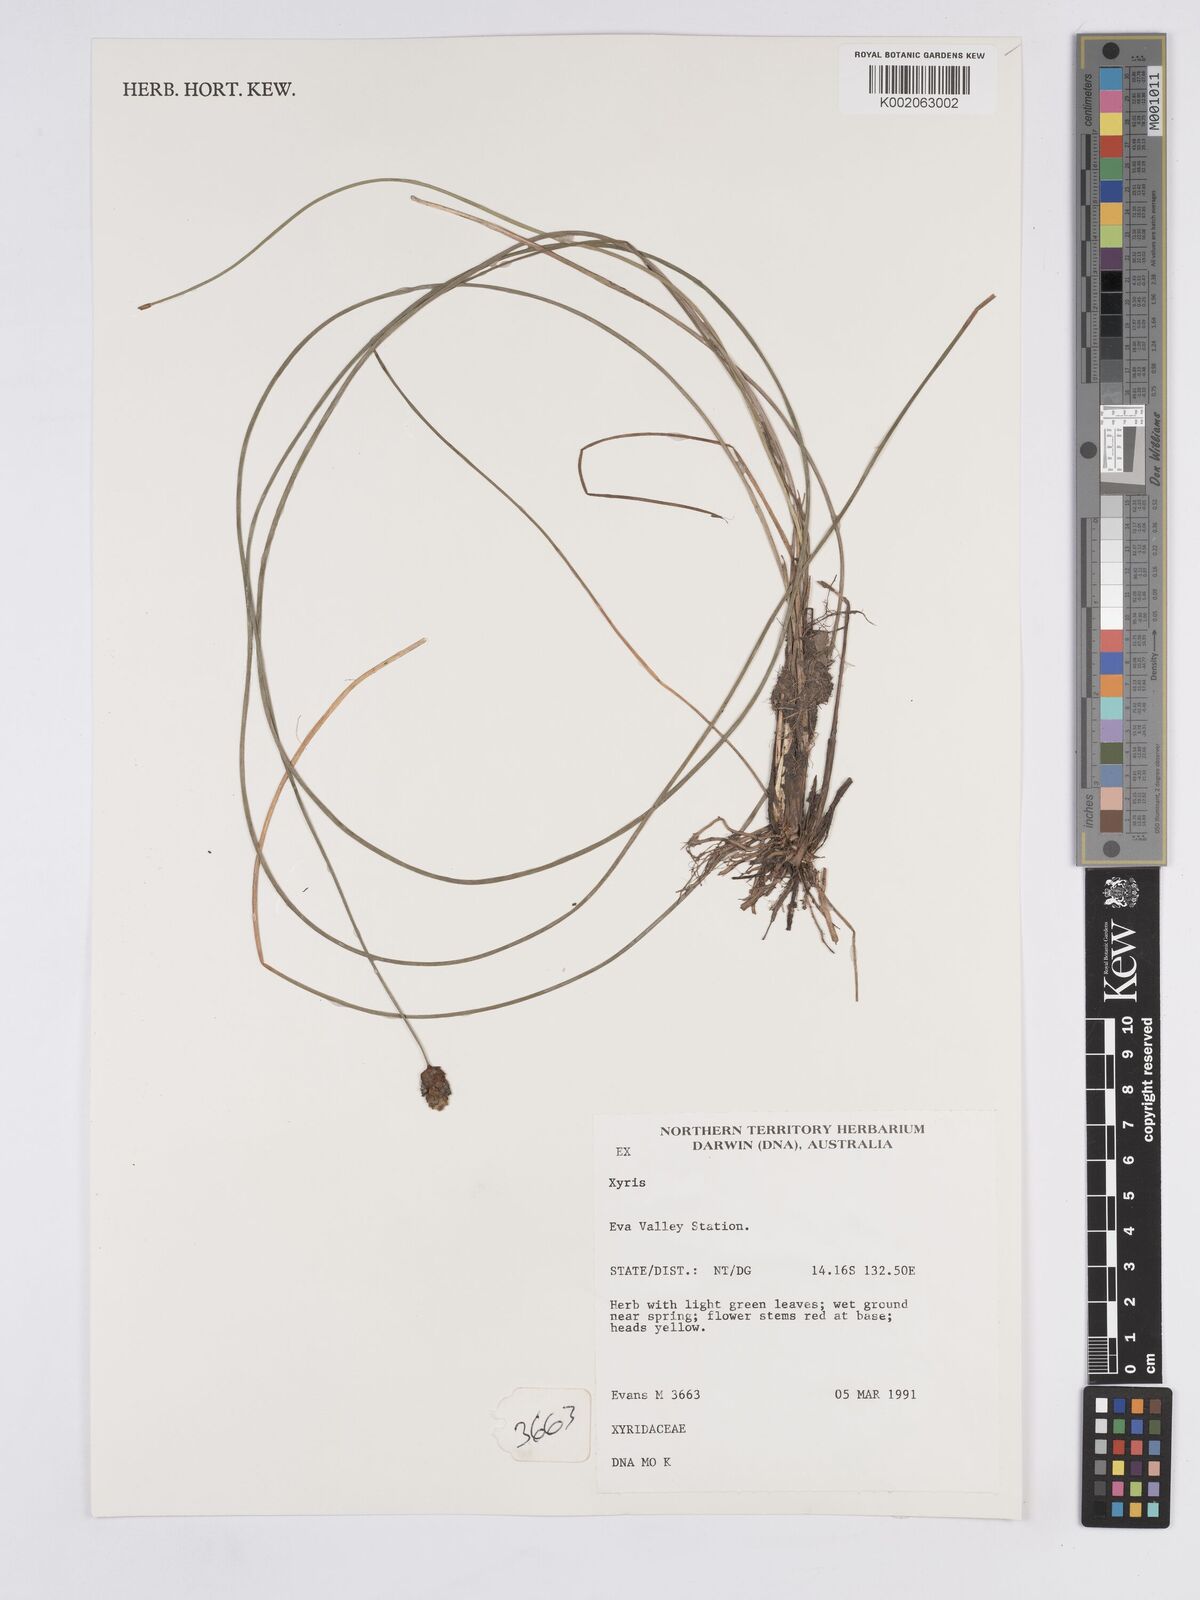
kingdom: Plantae
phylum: Tracheophyta
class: Liliopsida
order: Poales
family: Xyridaceae
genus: Xyris
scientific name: Xyris
